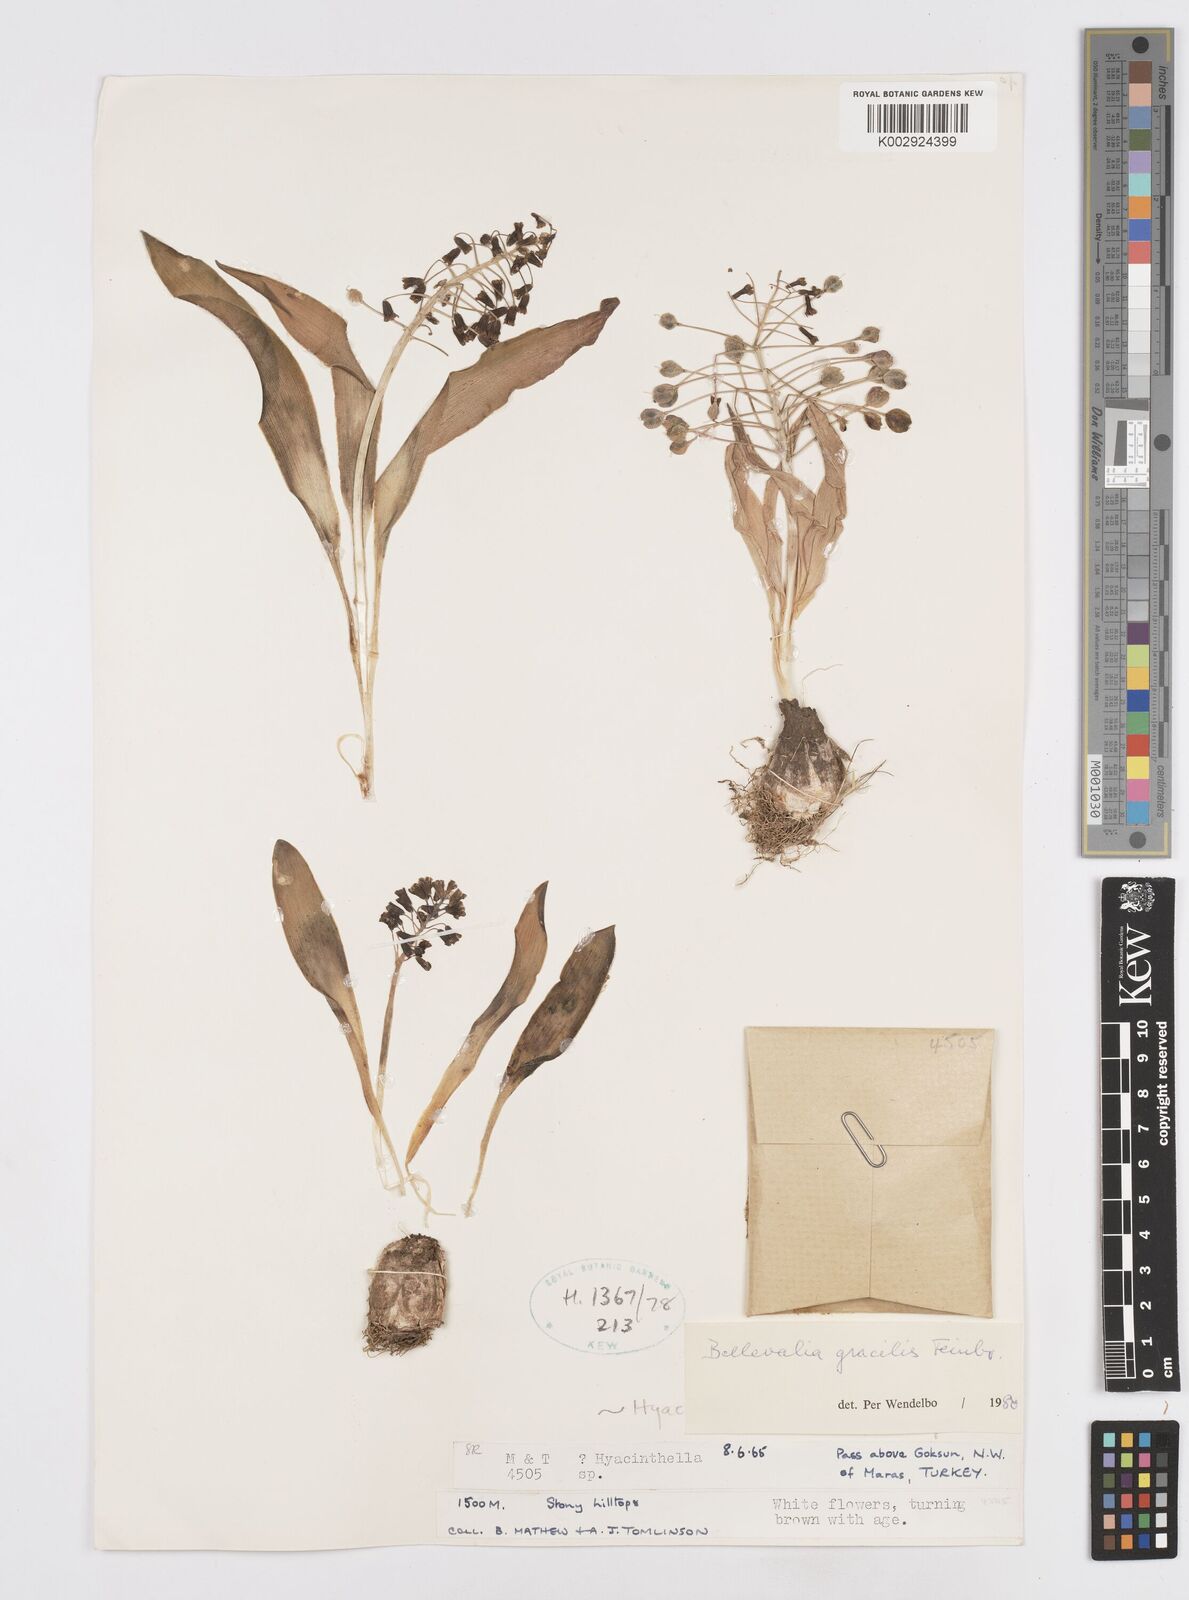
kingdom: Plantae
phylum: Tracheophyta
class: Liliopsida
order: Asparagales
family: Asparagaceae
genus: Bellevalia
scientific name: Bellevalia gracilis
